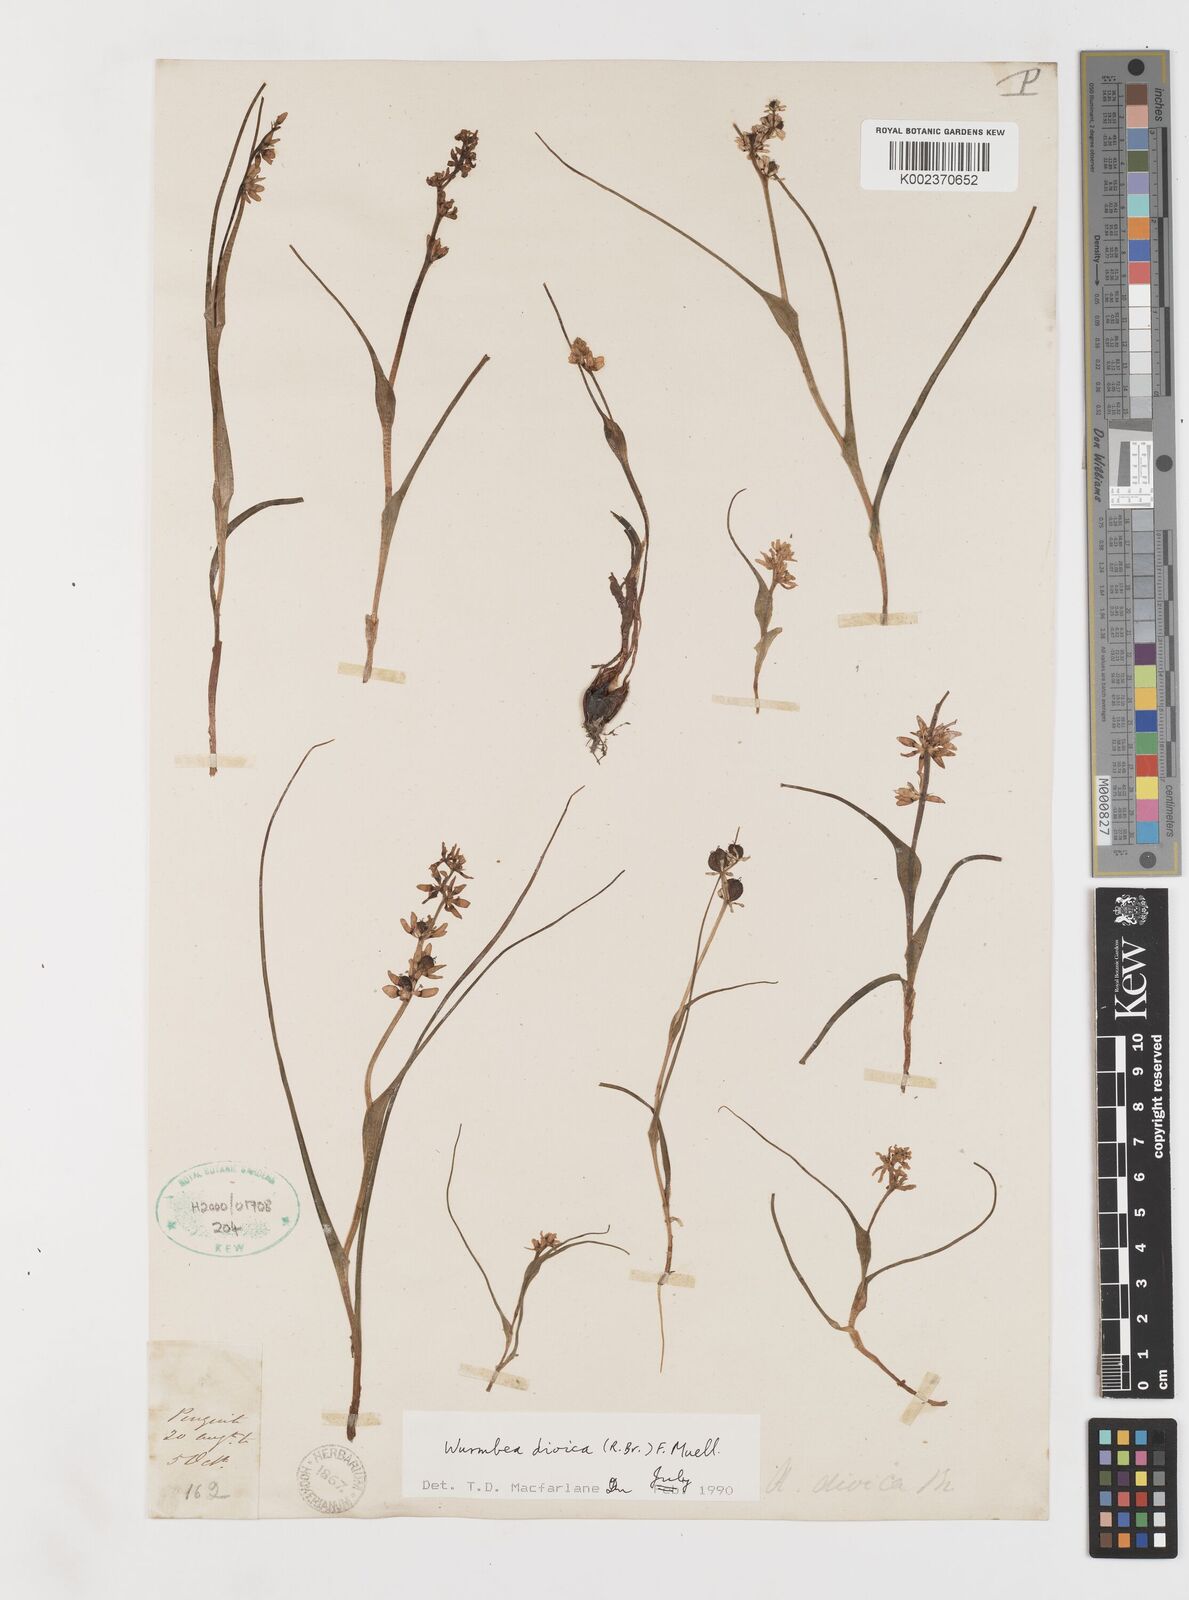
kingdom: Plantae
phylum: Tracheophyta
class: Liliopsida
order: Liliales
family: Colchicaceae
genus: Wurmbea
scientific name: Wurmbea dioica
